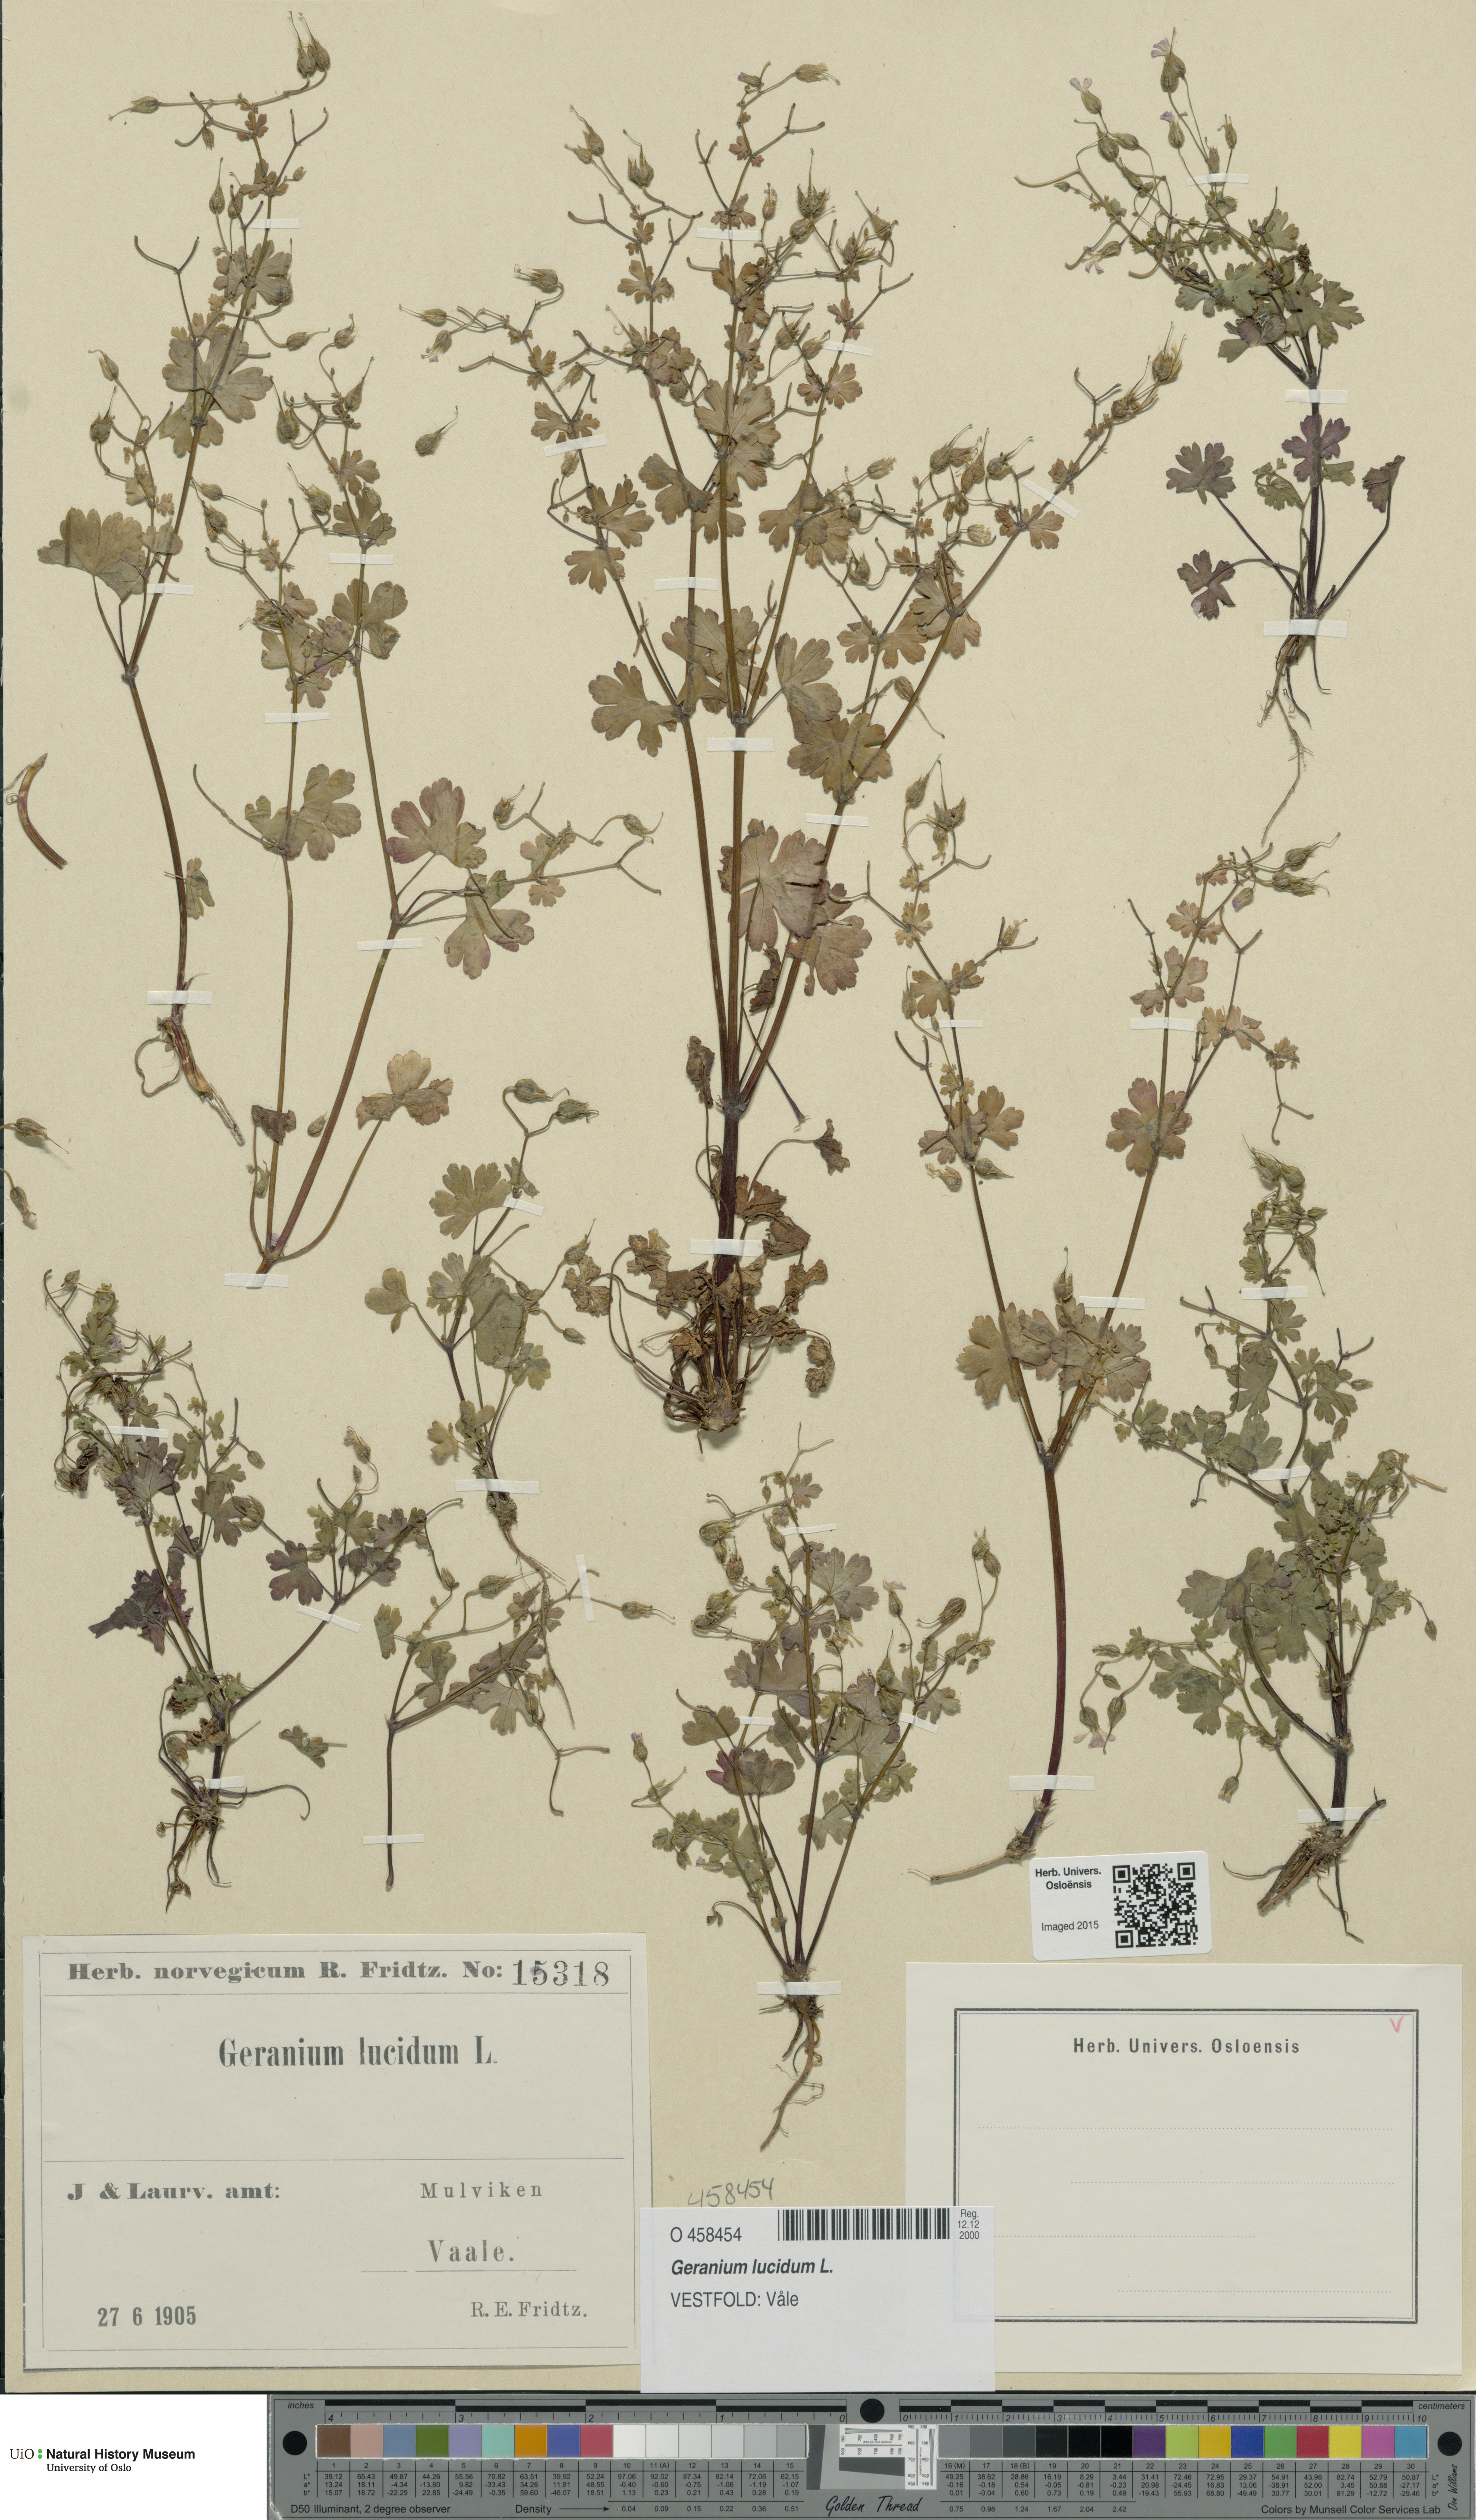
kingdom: Plantae
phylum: Tracheophyta
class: Magnoliopsida
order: Geraniales
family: Geraniaceae
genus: Geranium
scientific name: Geranium lucidum
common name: Shining crane's-bill
